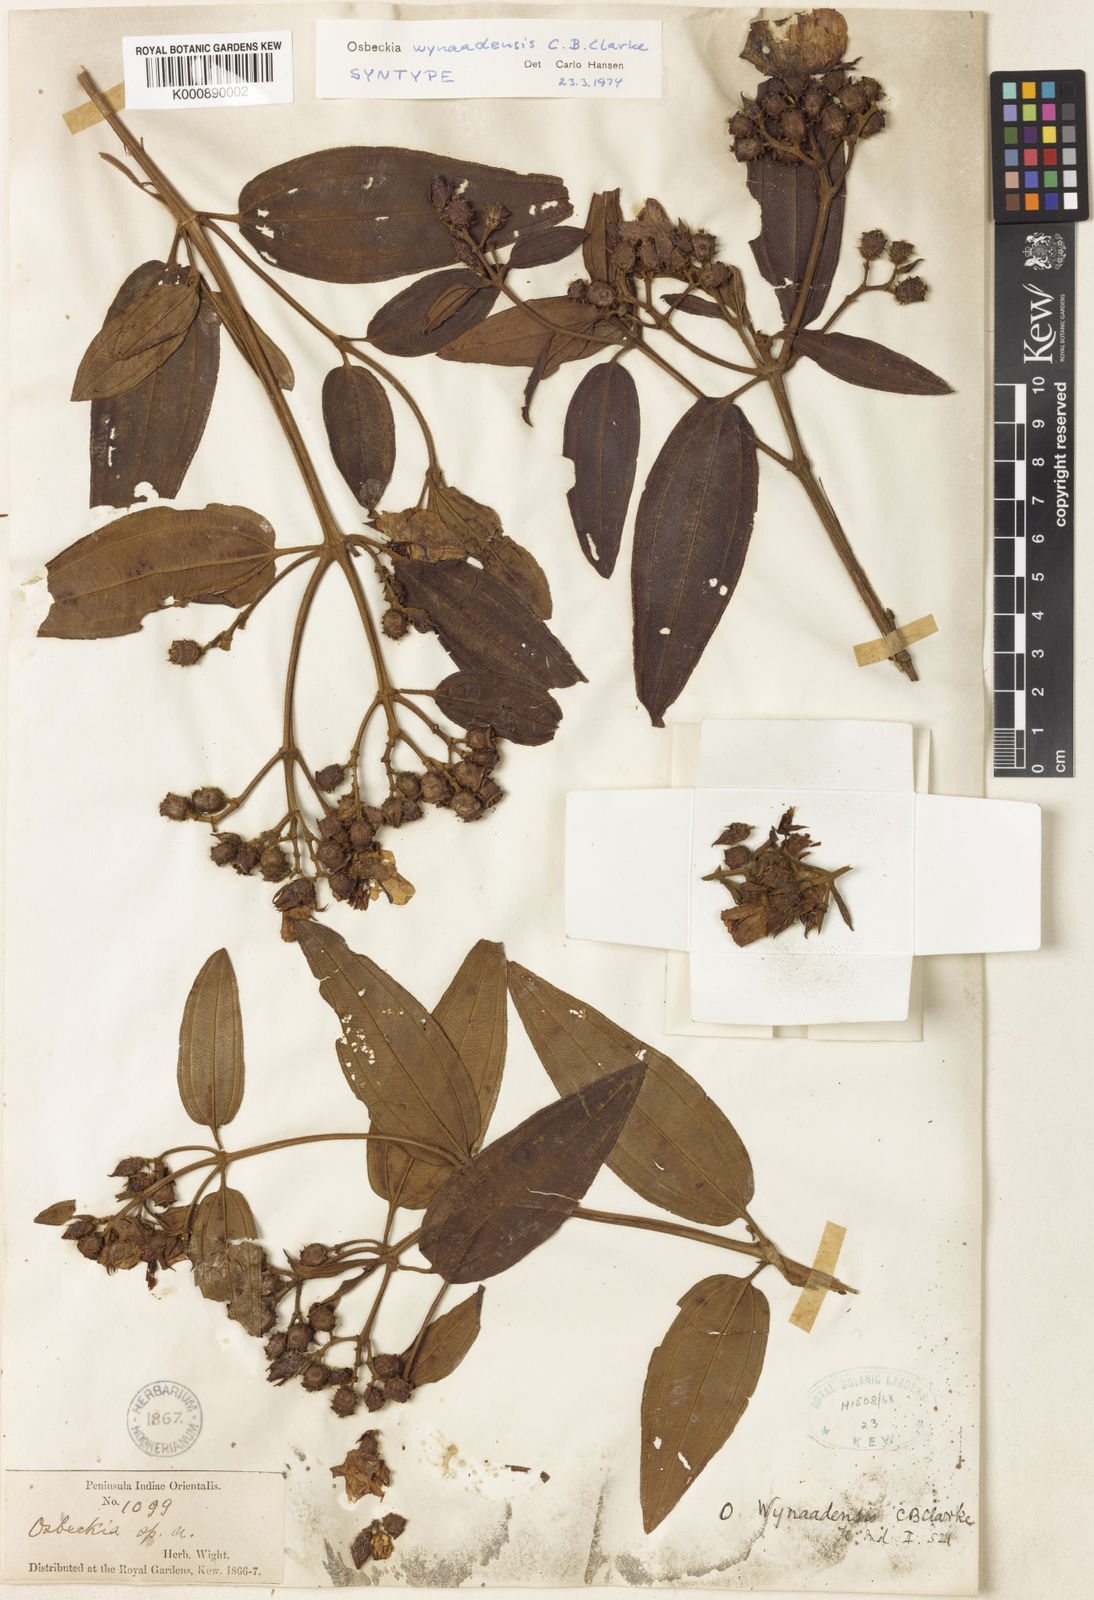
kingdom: Plantae
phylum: Tracheophyta
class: Magnoliopsida
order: Myrtales
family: Melastomataceae
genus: Osbeckia
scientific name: Osbeckia wynaadensis
